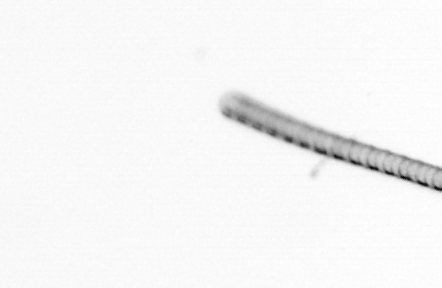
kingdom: Chromista
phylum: Ochrophyta
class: Bacillariophyceae
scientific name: Bacillariophyceae
